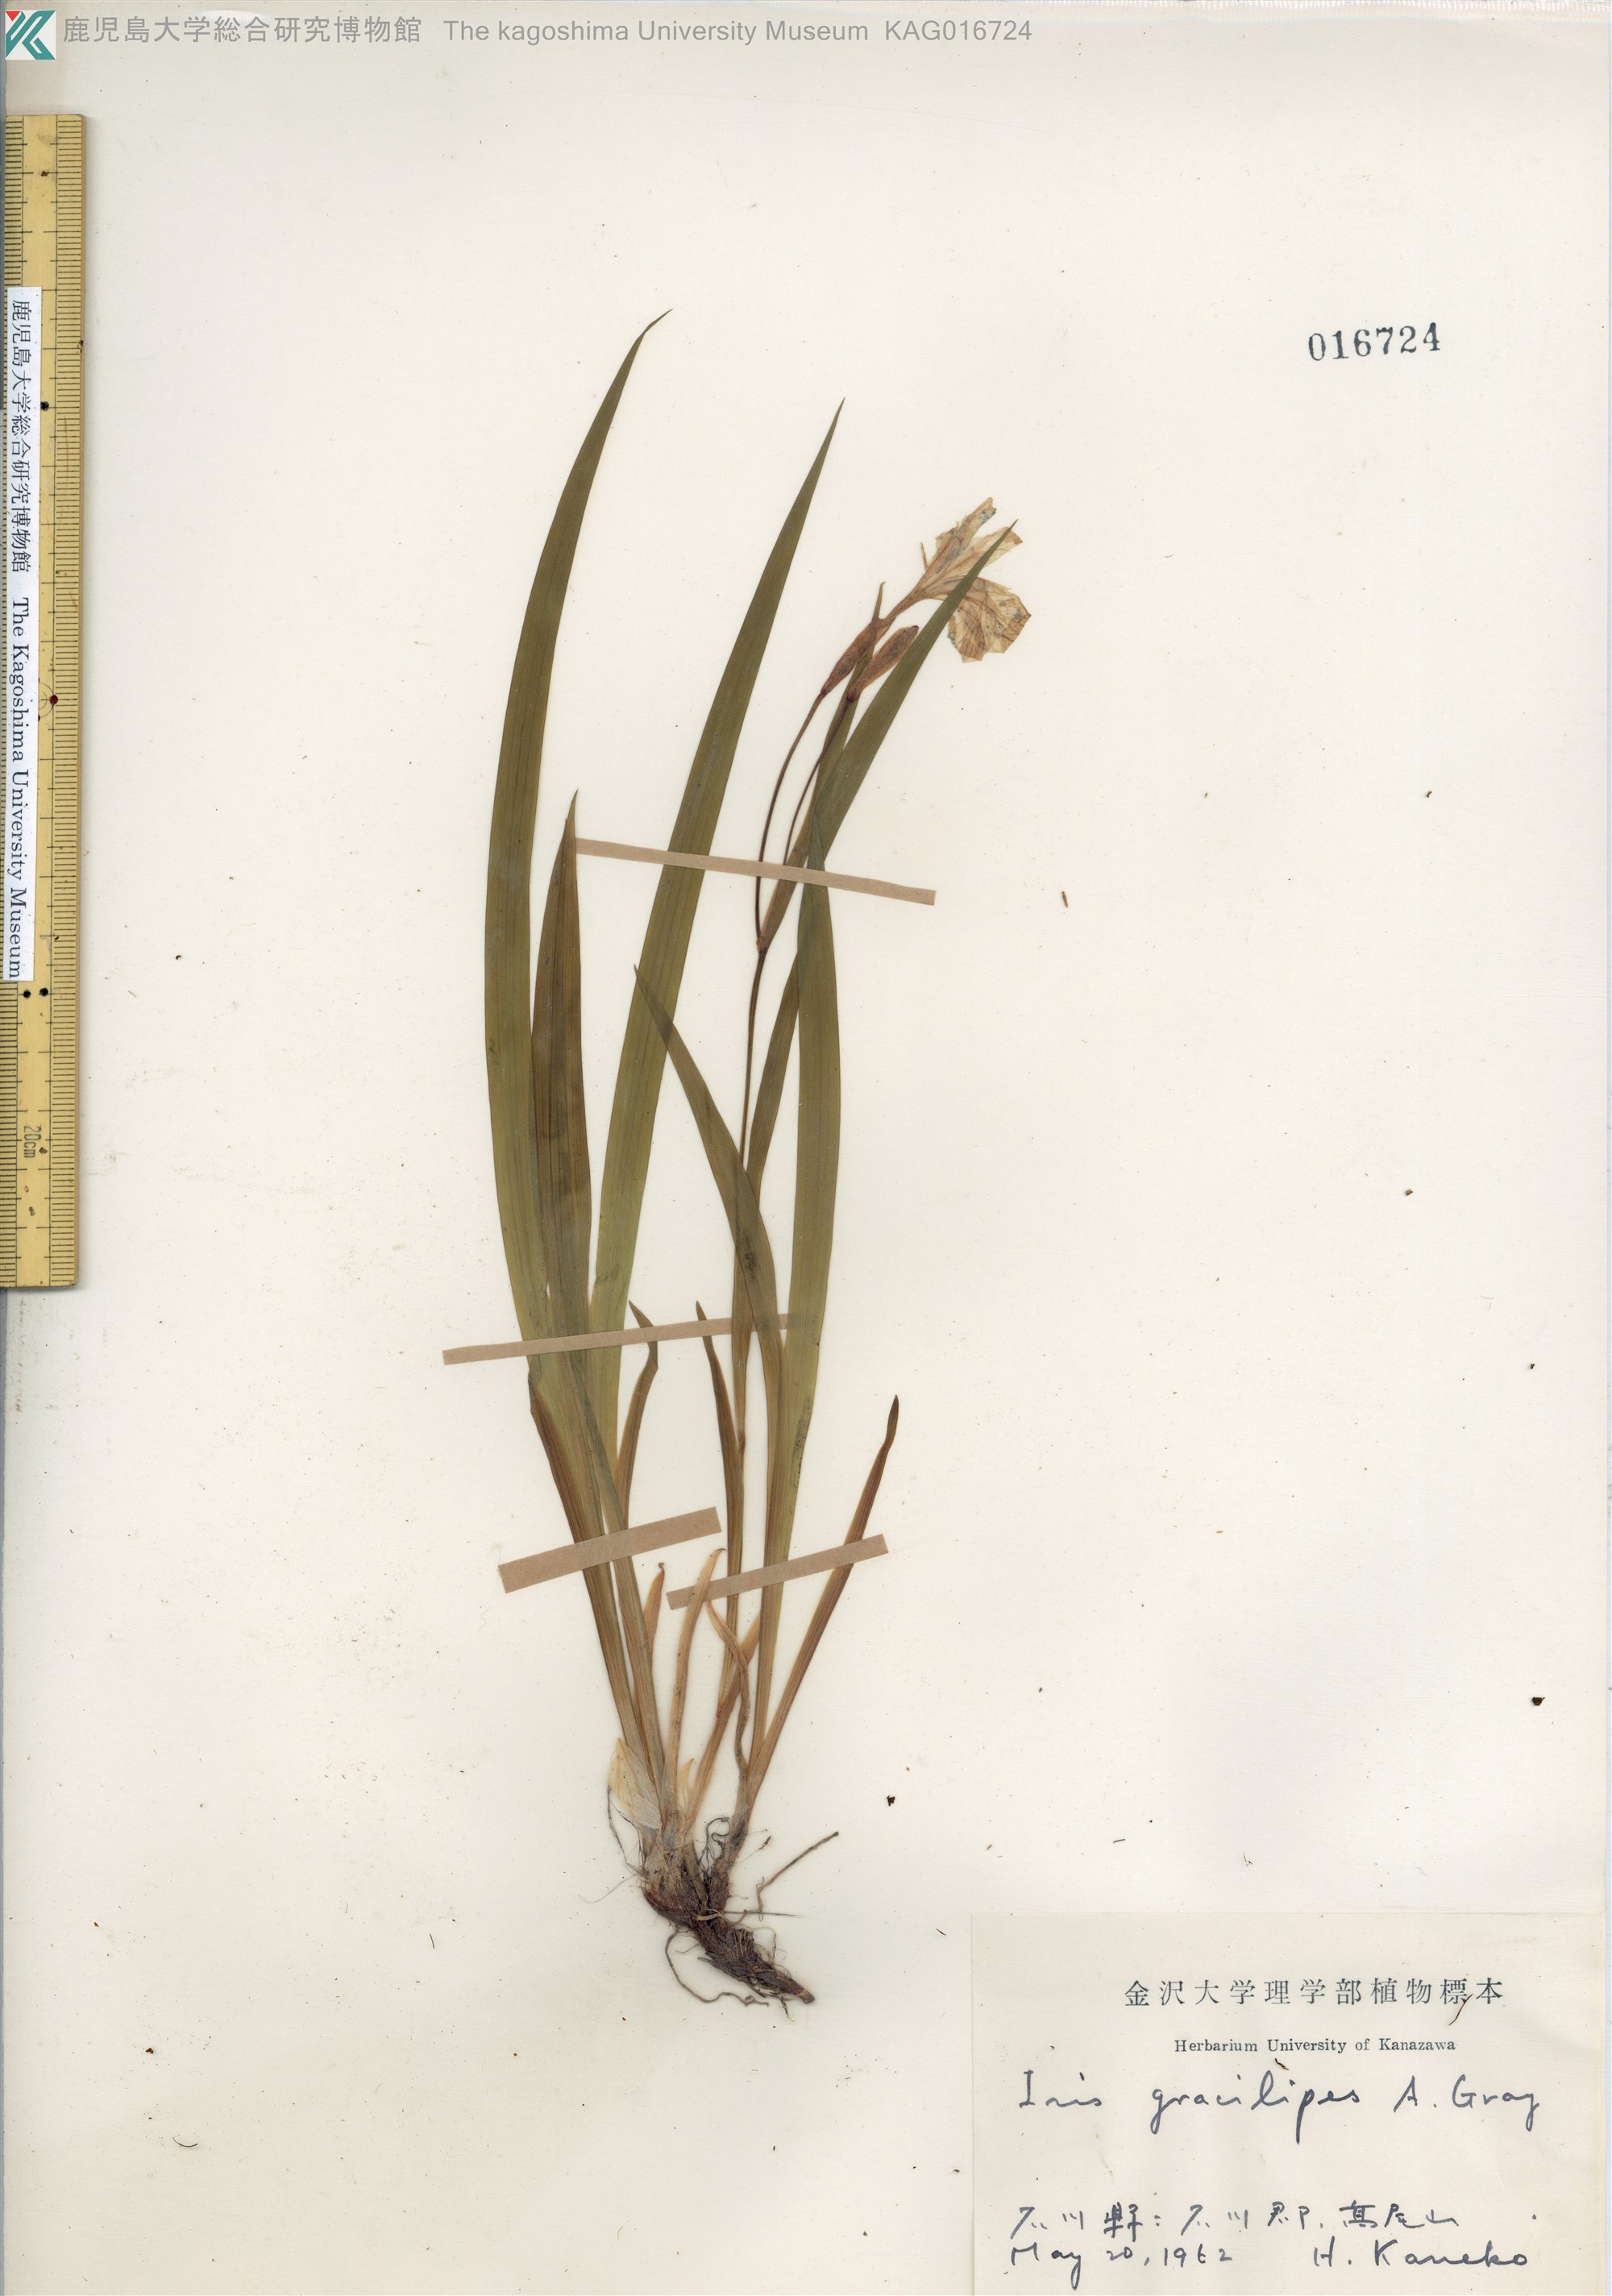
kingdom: Plantae
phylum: Tracheophyta
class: Liliopsida
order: Asparagales
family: Iridaceae
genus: Iris
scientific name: Iris gracilipes
